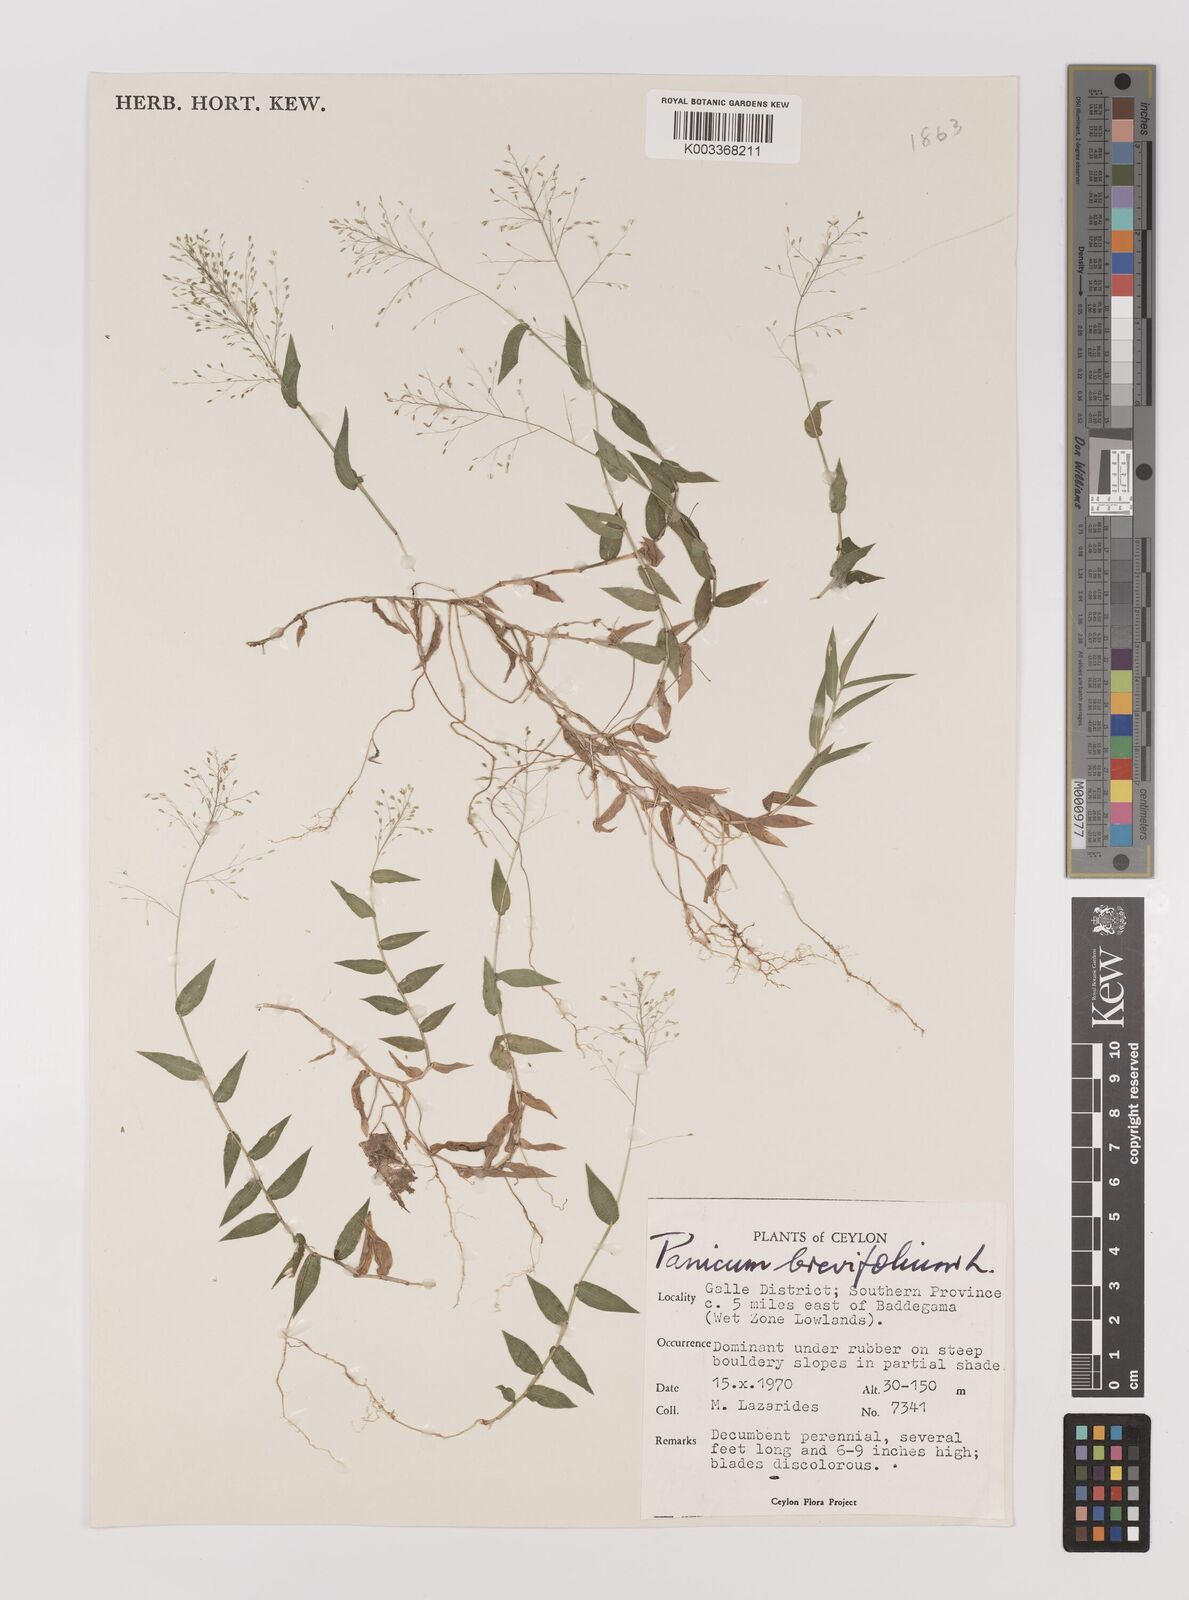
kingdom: Plantae
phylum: Tracheophyta
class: Liliopsida
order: Poales
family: Poaceae
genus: Panicum
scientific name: Panicum brevifolium
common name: Shortleaf panic grass
